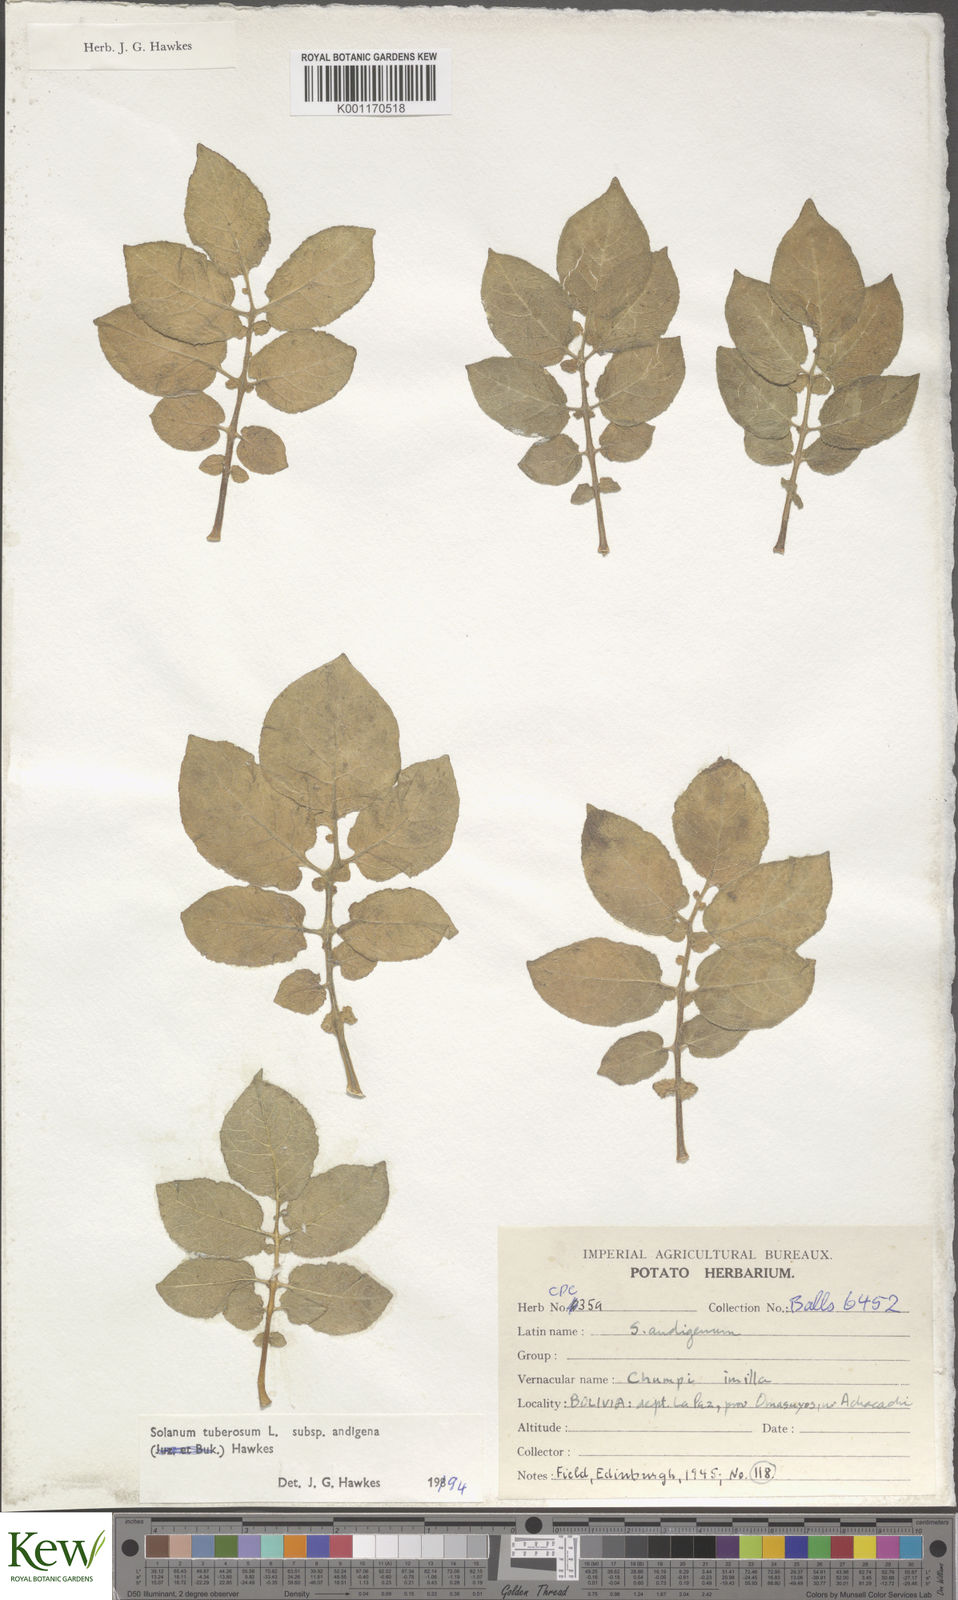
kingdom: Plantae
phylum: Tracheophyta
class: Magnoliopsida
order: Solanales
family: Solanaceae
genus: Solanum
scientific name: Solanum tuberosum
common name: Potato
